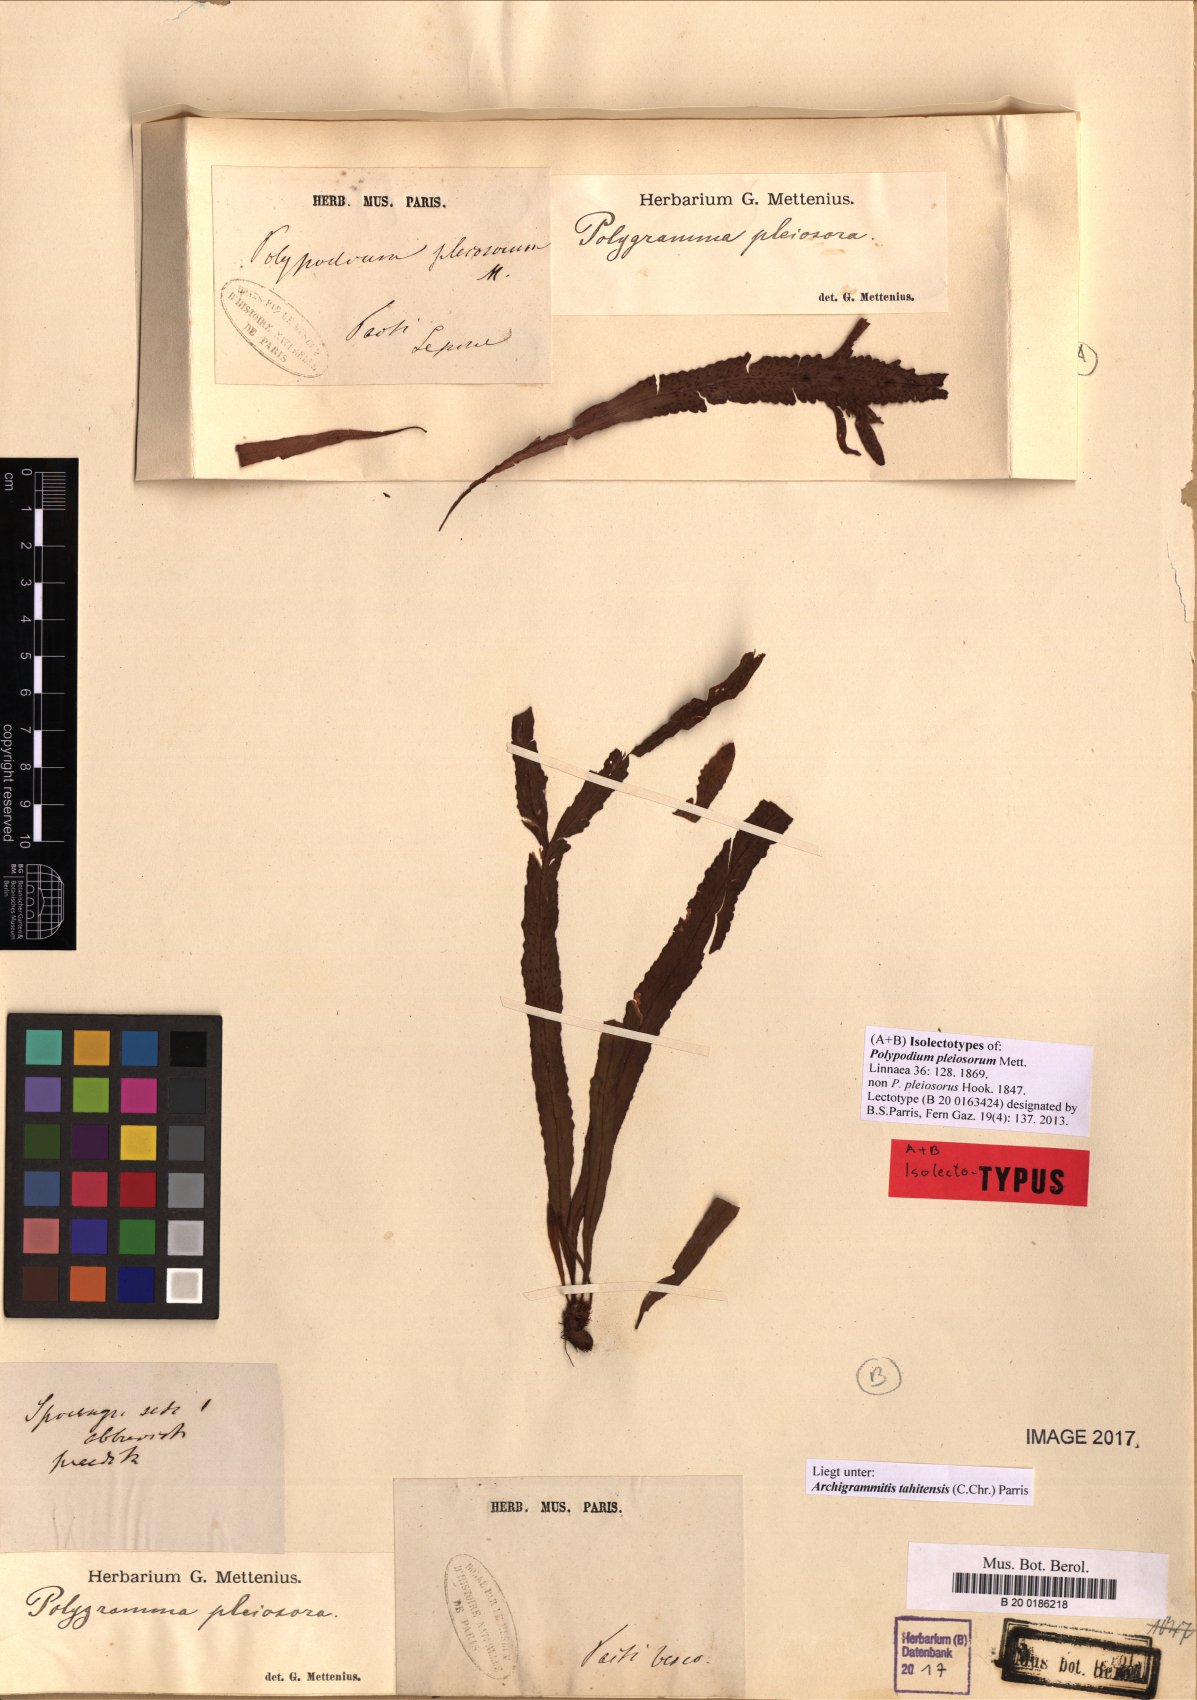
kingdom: Plantae
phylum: Tracheophyta
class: Polypodiopsida
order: Polypodiales
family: Polypodiaceae
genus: Archigrammitis
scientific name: Archigrammitis tahitensis
